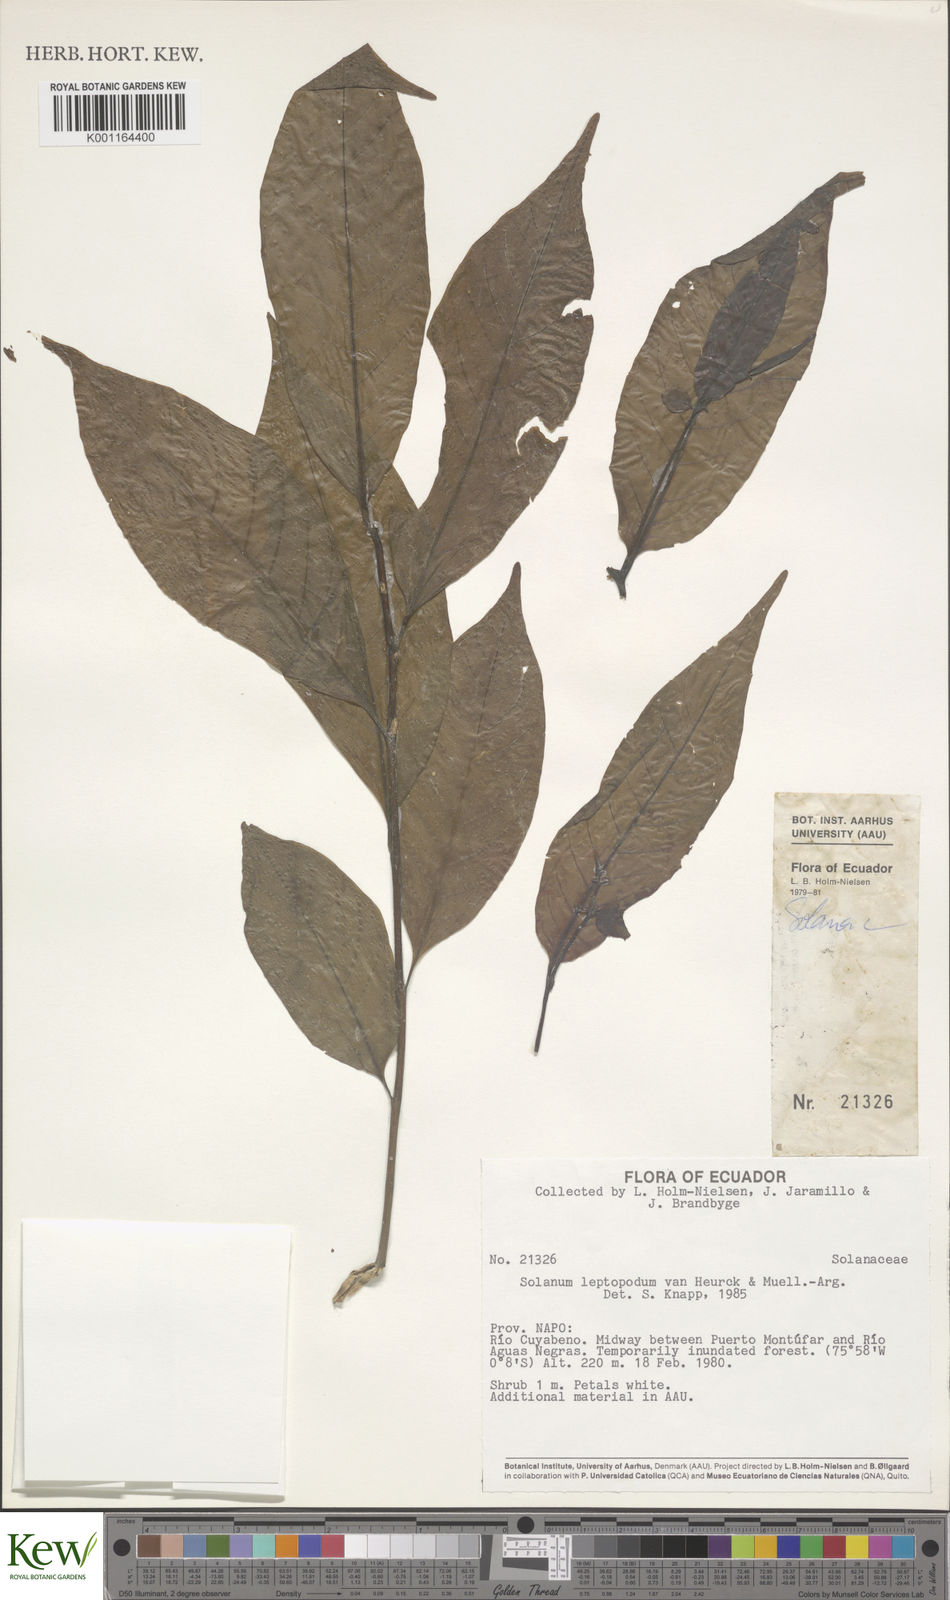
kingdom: Plantae
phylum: Tracheophyta
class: Magnoliopsida
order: Solanales
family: Solanaceae
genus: Solanum
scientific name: Solanum leptopodum
